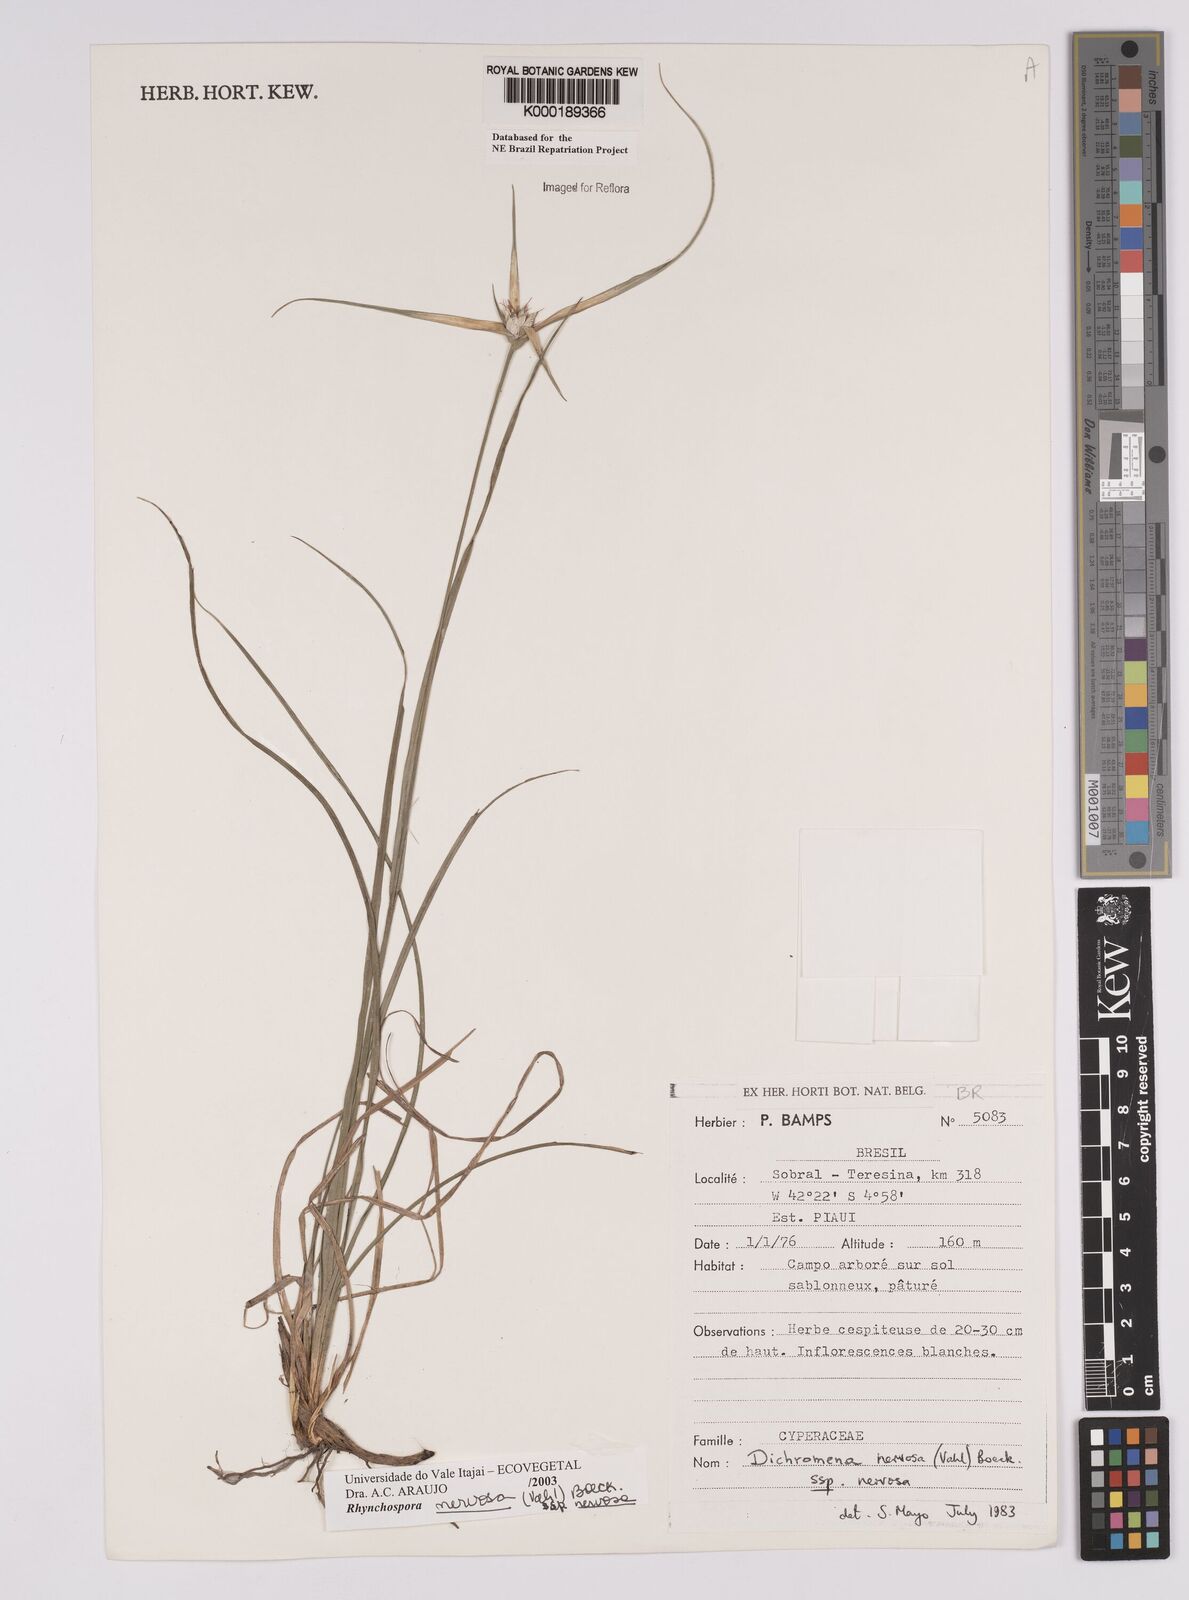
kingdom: Plantae
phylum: Tracheophyta
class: Liliopsida
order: Poales
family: Cyperaceae
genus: Rhynchospora
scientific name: Rhynchospora nervosa
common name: Star sedge
